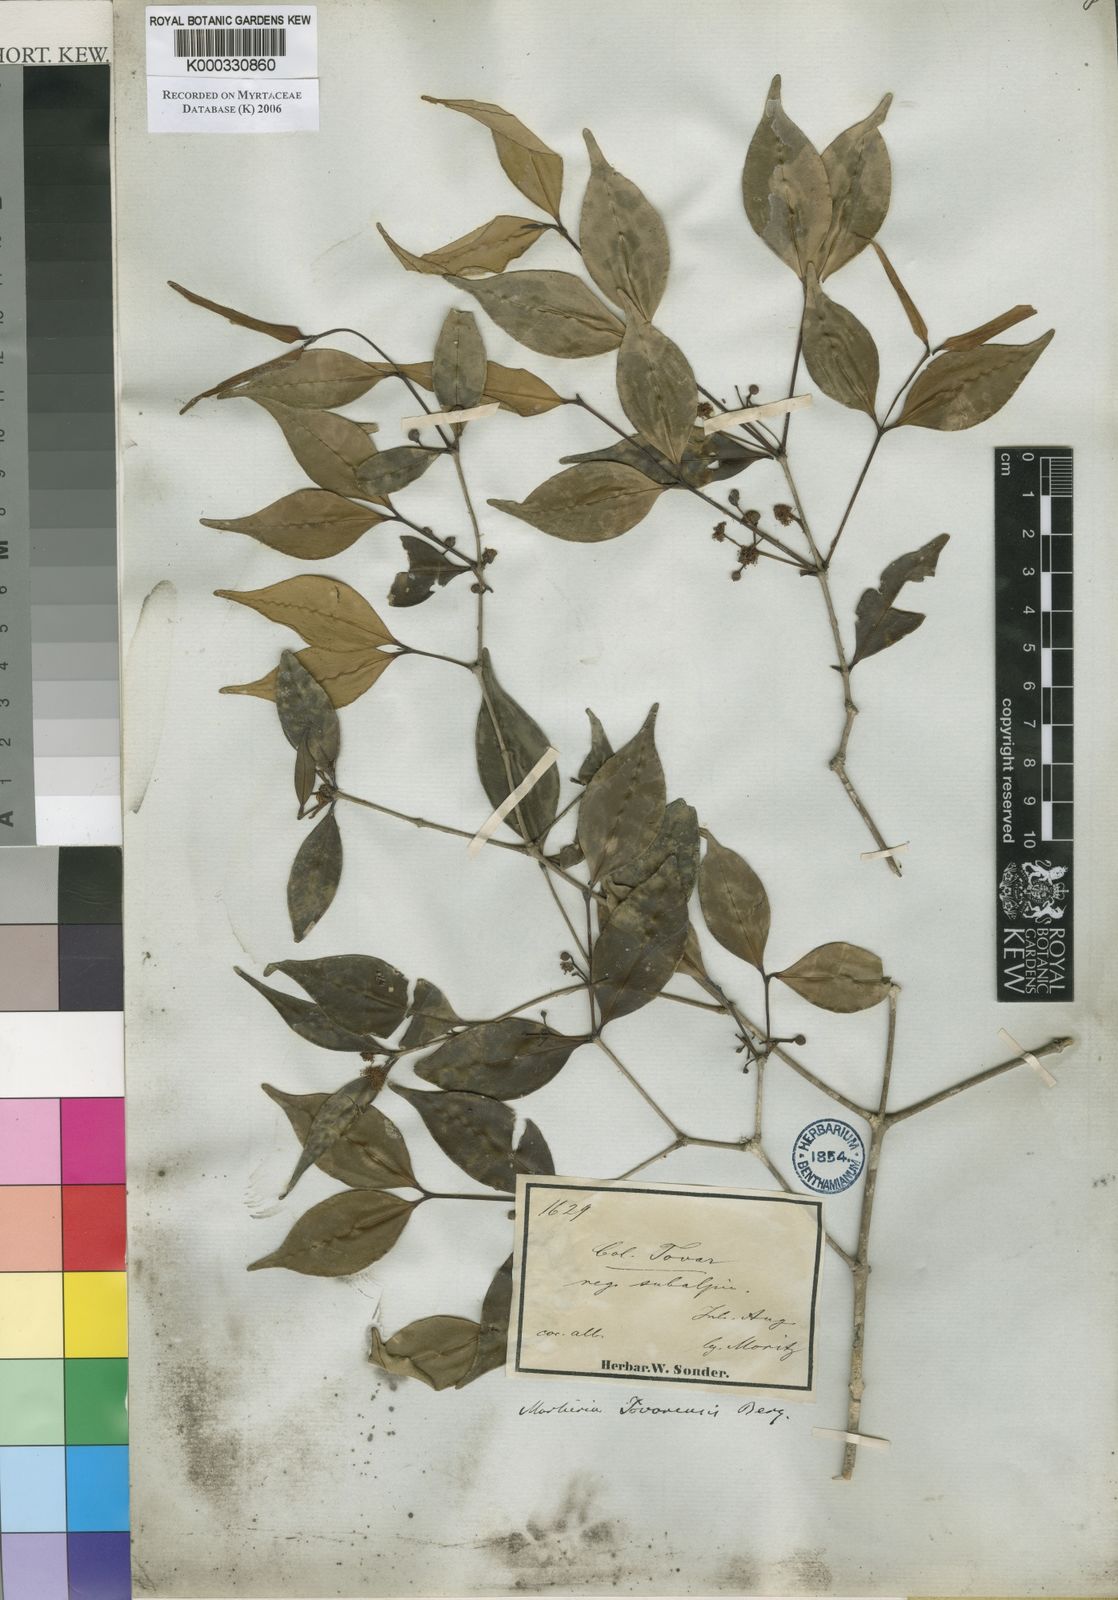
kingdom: Plantae
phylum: Tracheophyta
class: Magnoliopsida
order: Myrtales
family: Myrtaceae
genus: Myrcia
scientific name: Myrcia neotovarensis
